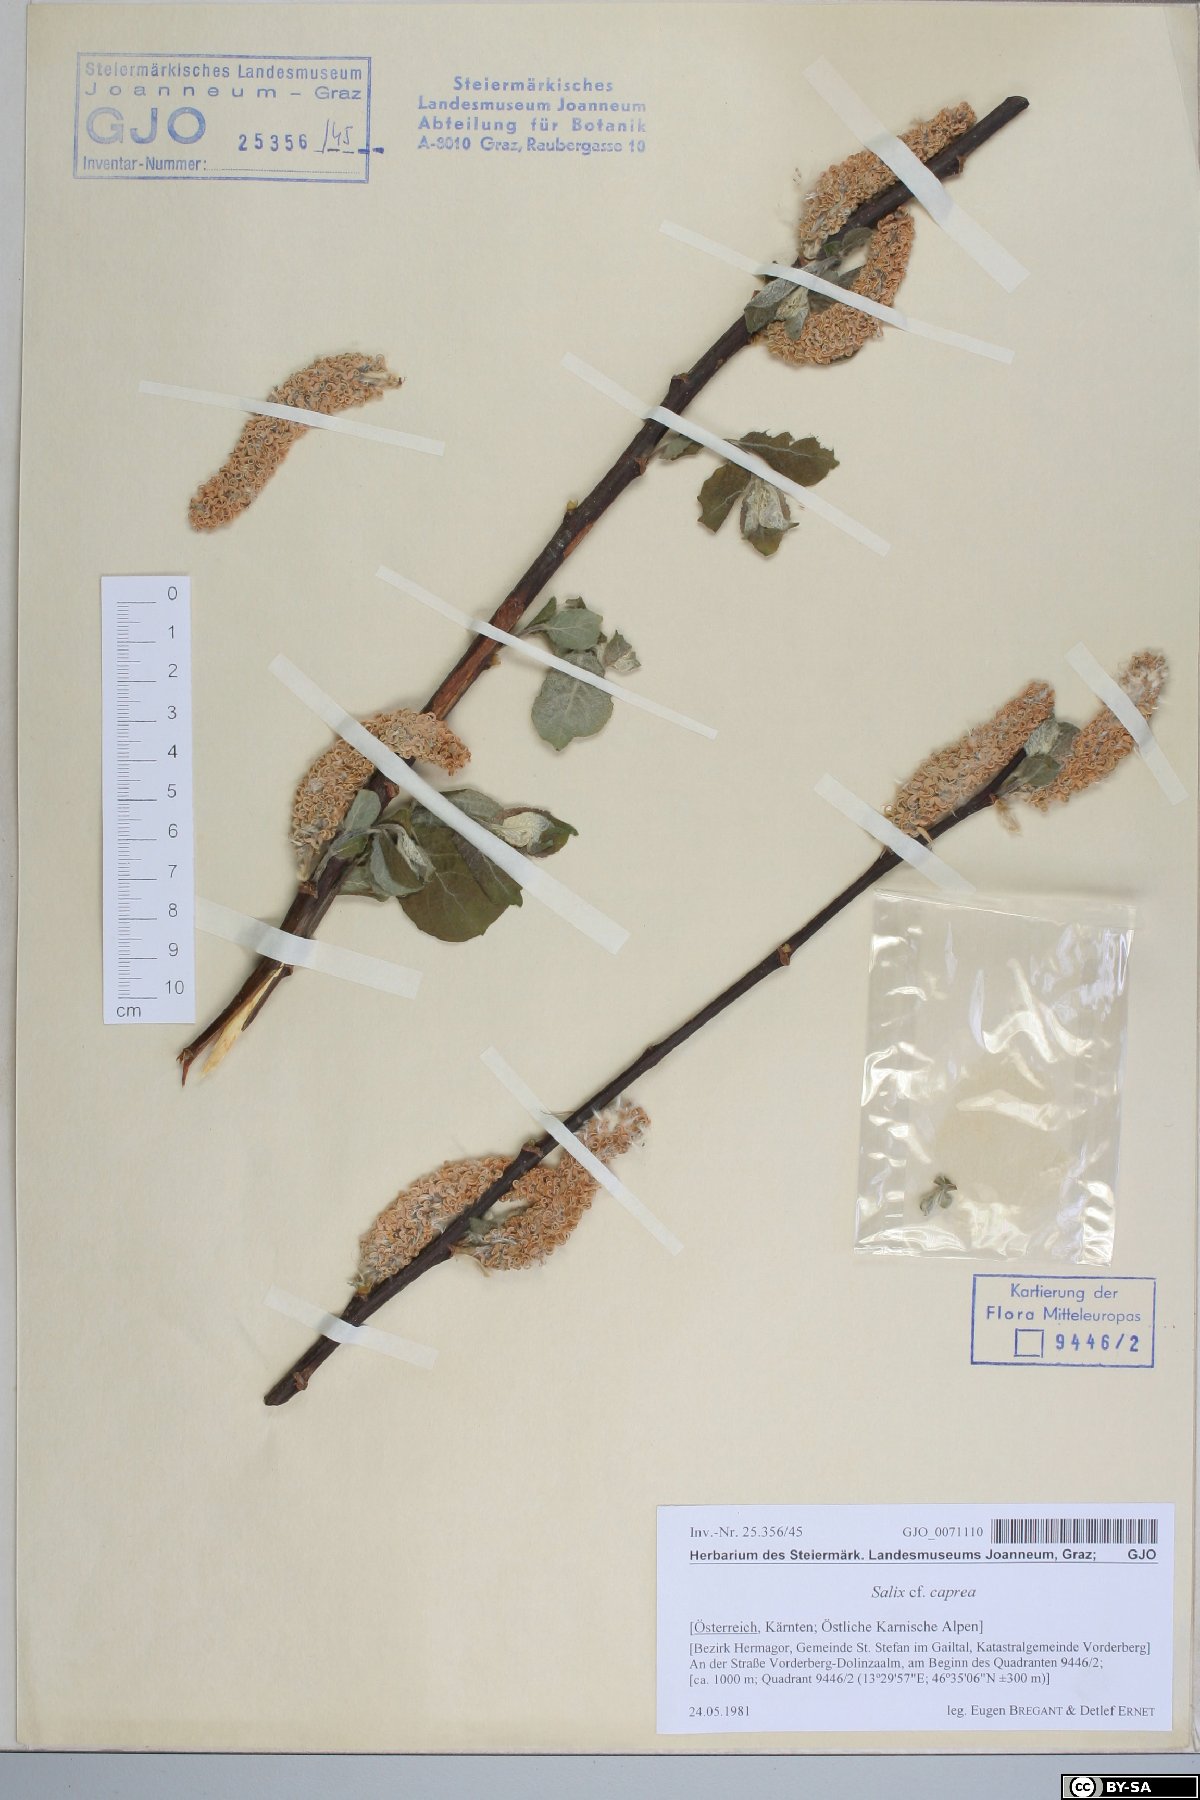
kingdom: Plantae
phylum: Tracheophyta
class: Magnoliopsida
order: Malpighiales
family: Salicaceae
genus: Salix
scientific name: Salix caprea
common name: Goat willow
